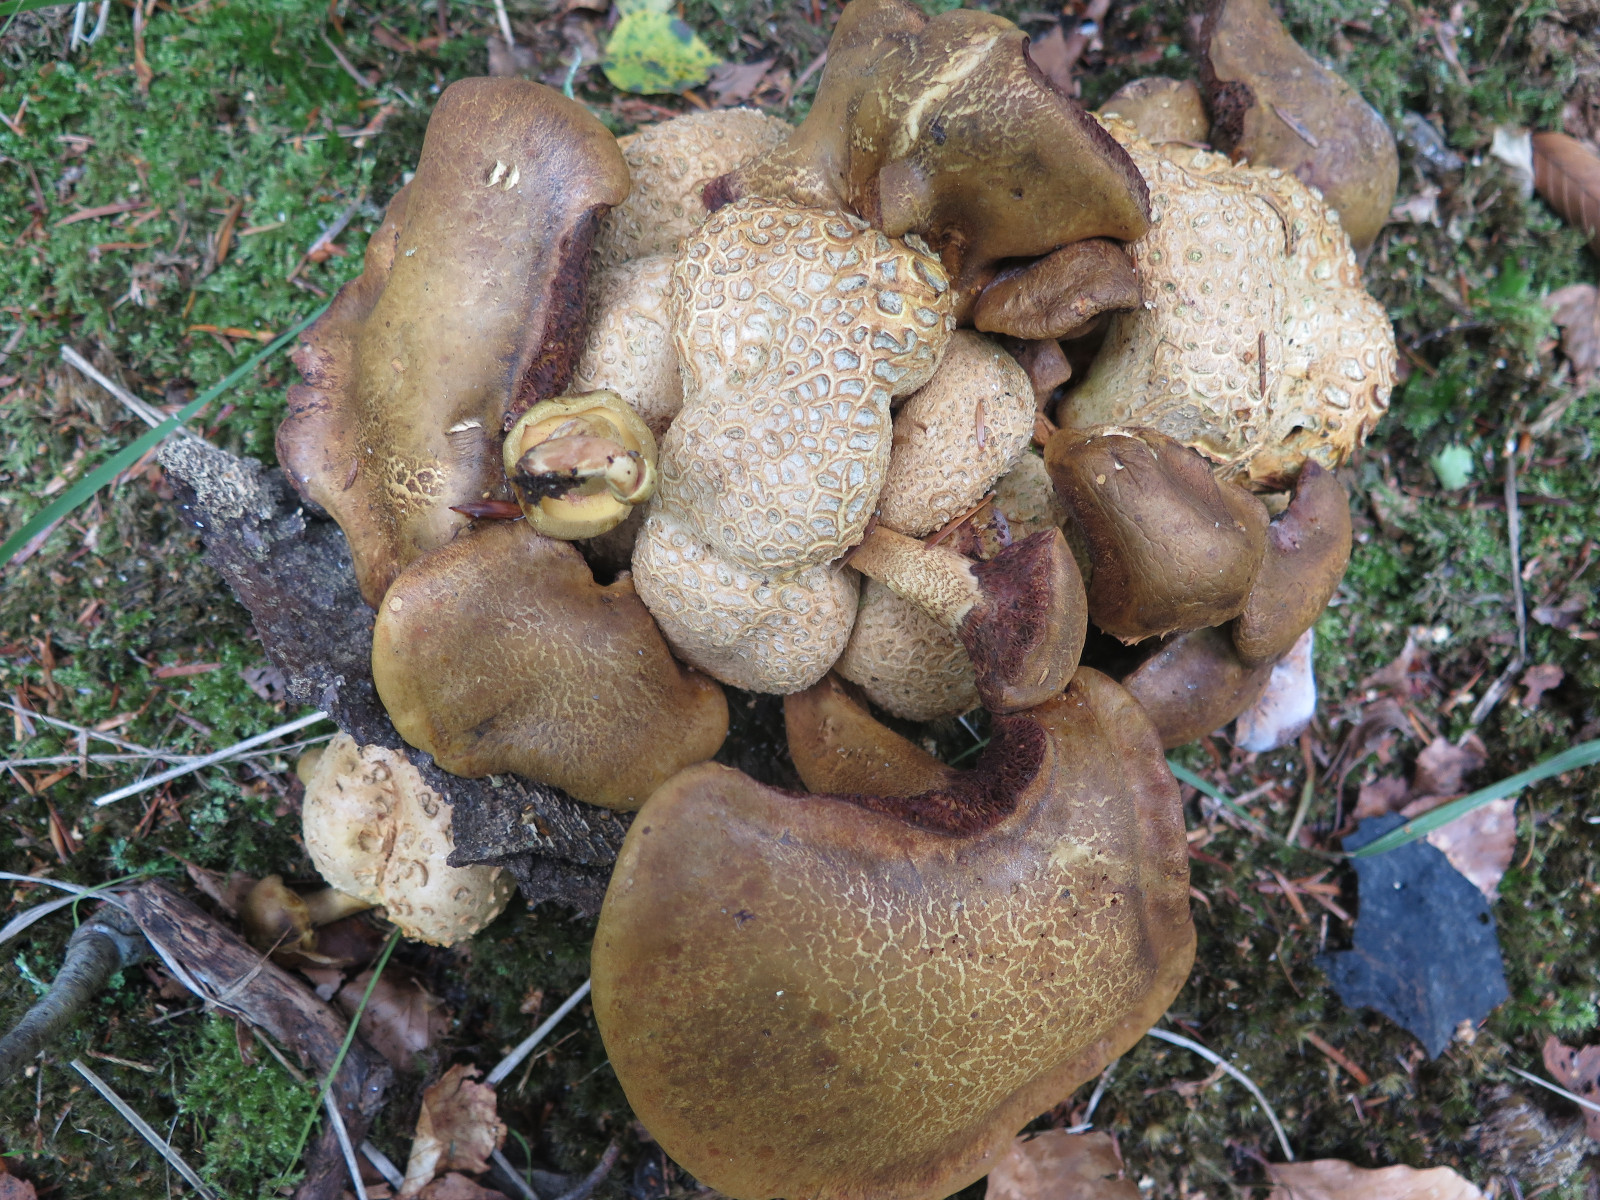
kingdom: Fungi
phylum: Basidiomycota
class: Agaricomycetes
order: Boletales
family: Boletaceae
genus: Pseudoboletus
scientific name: Pseudoboletus parasiticus
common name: snyltende rørhat
